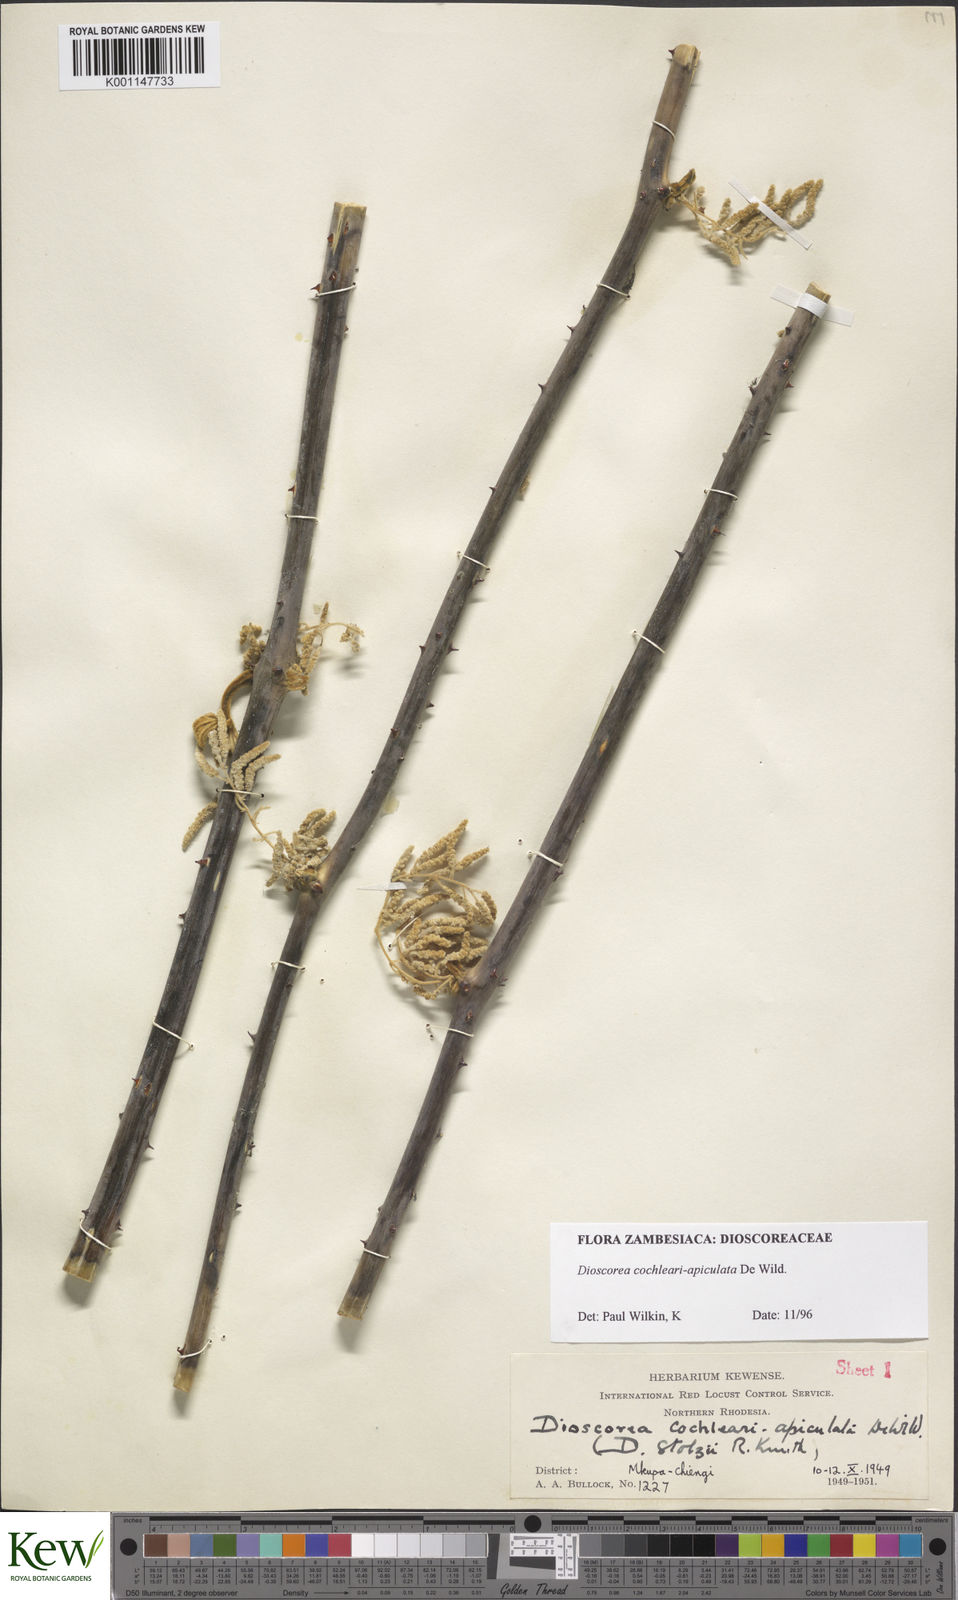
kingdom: Plantae
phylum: Tracheophyta
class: Liliopsida
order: Dioscoreales
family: Dioscoreaceae
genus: Dioscorea
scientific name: Dioscorea cochleariapiculata
